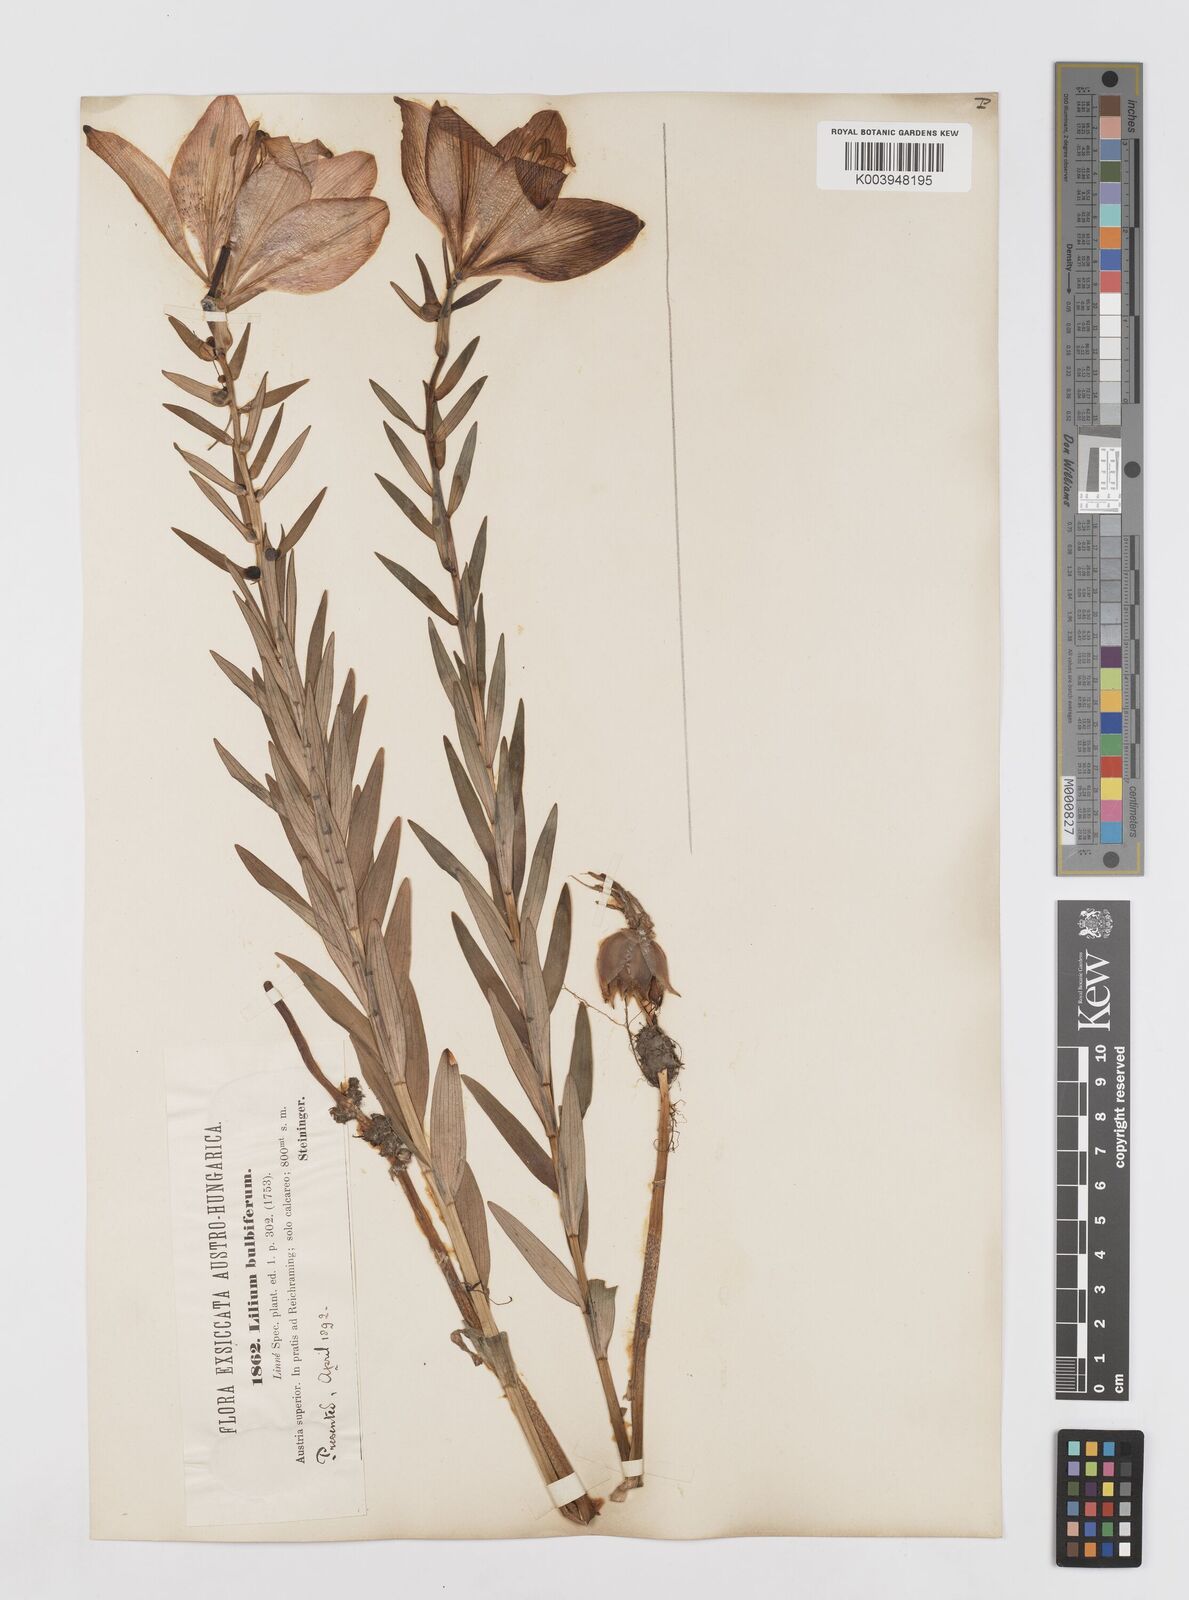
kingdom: Plantae
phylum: Tracheophyta
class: Liliopsida
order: Liliales
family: Liliaceae
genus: Lilium
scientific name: Lilium bulbiferum
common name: Orange lily
